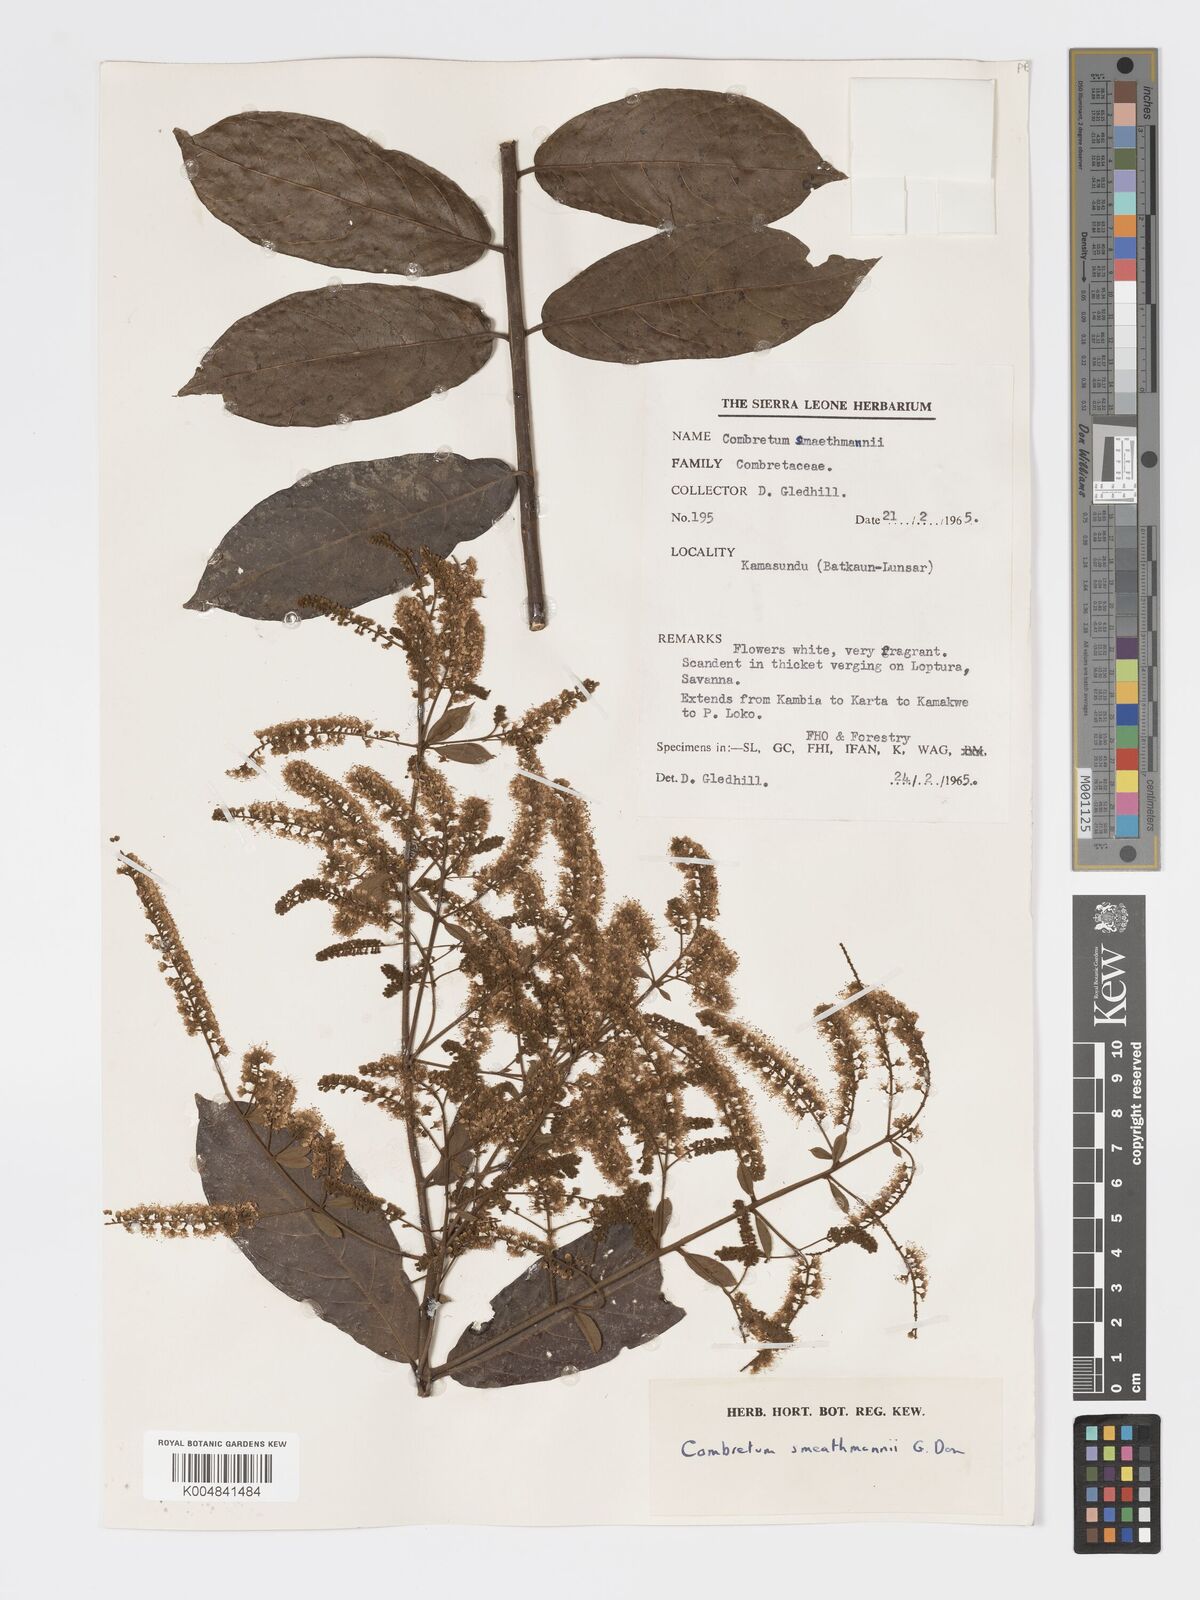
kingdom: Plantae
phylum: Tracheophyta
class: Magnoliopsida
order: Myrtales
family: Combretaceae
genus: Combretum
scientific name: Combretum mucronatum
